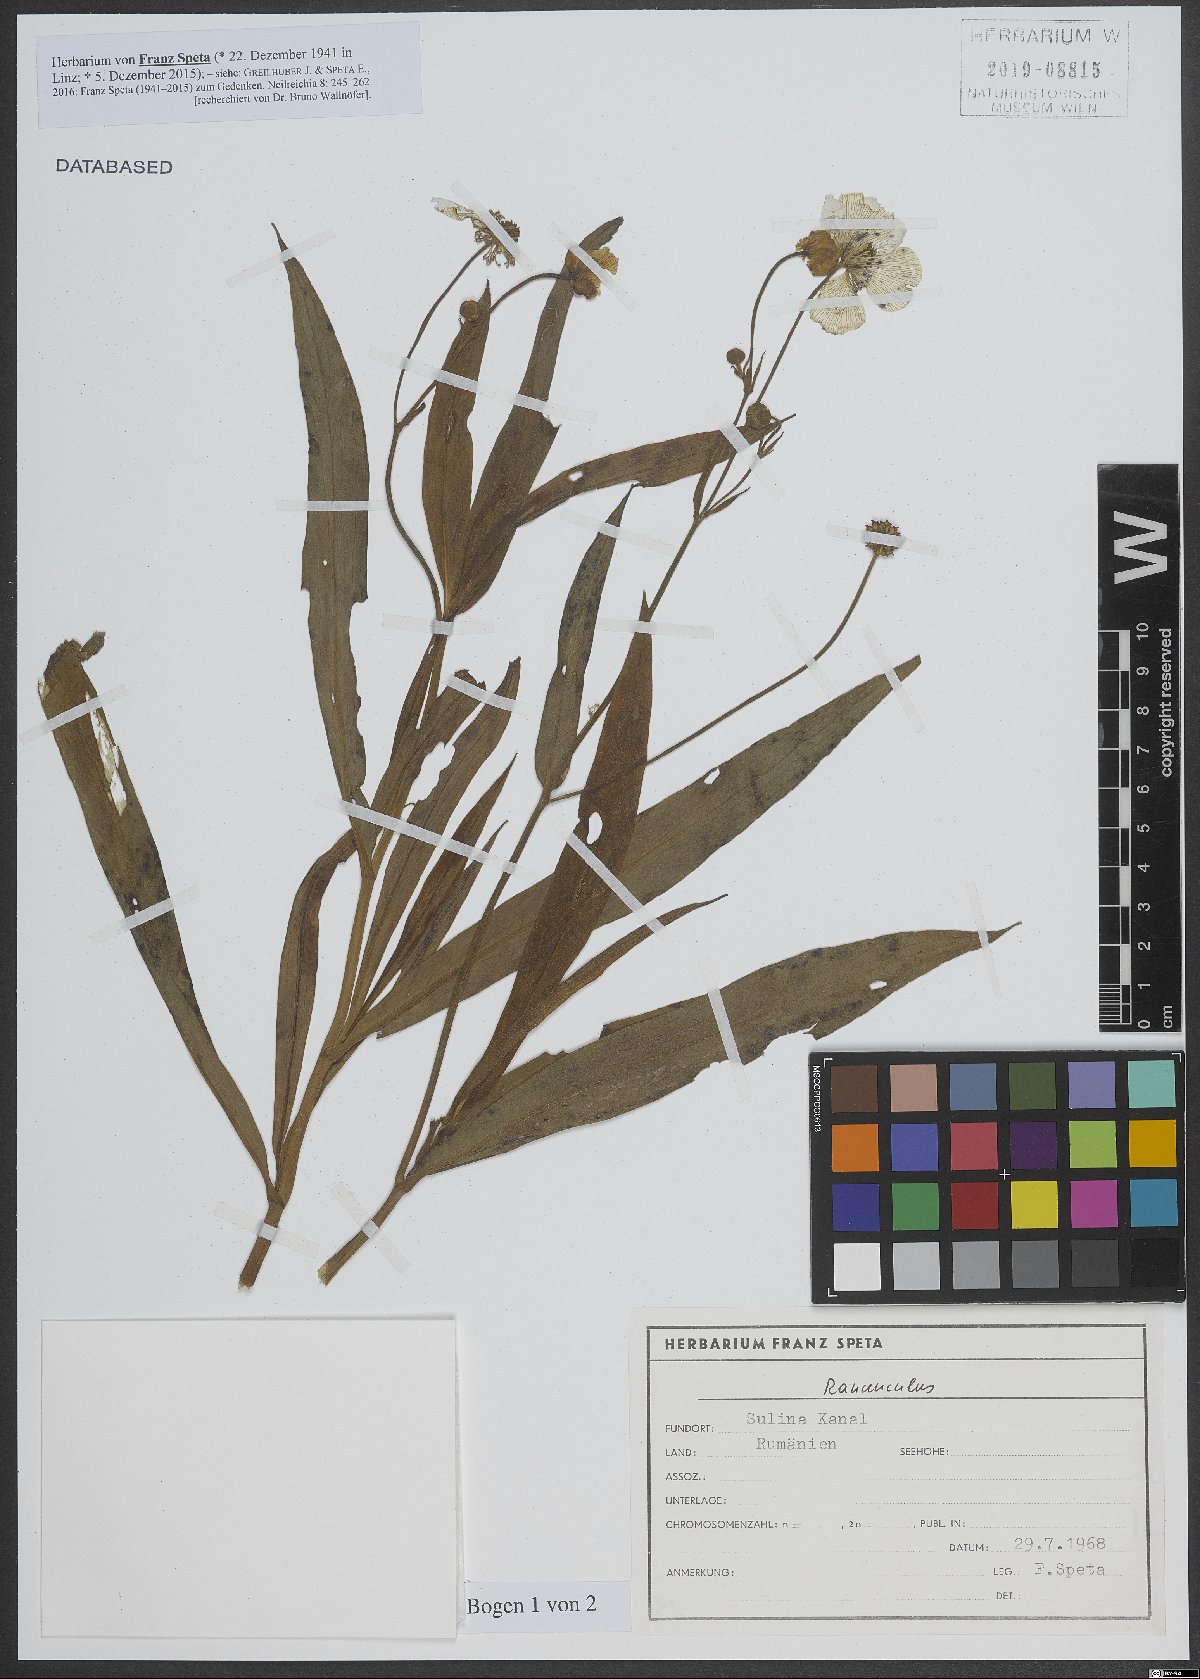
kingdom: Plantae
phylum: Tracheophyta
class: Magnoliopsida
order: Ranunculales
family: Ranunculaceae
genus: Ranunculus
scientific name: Ranunculus
